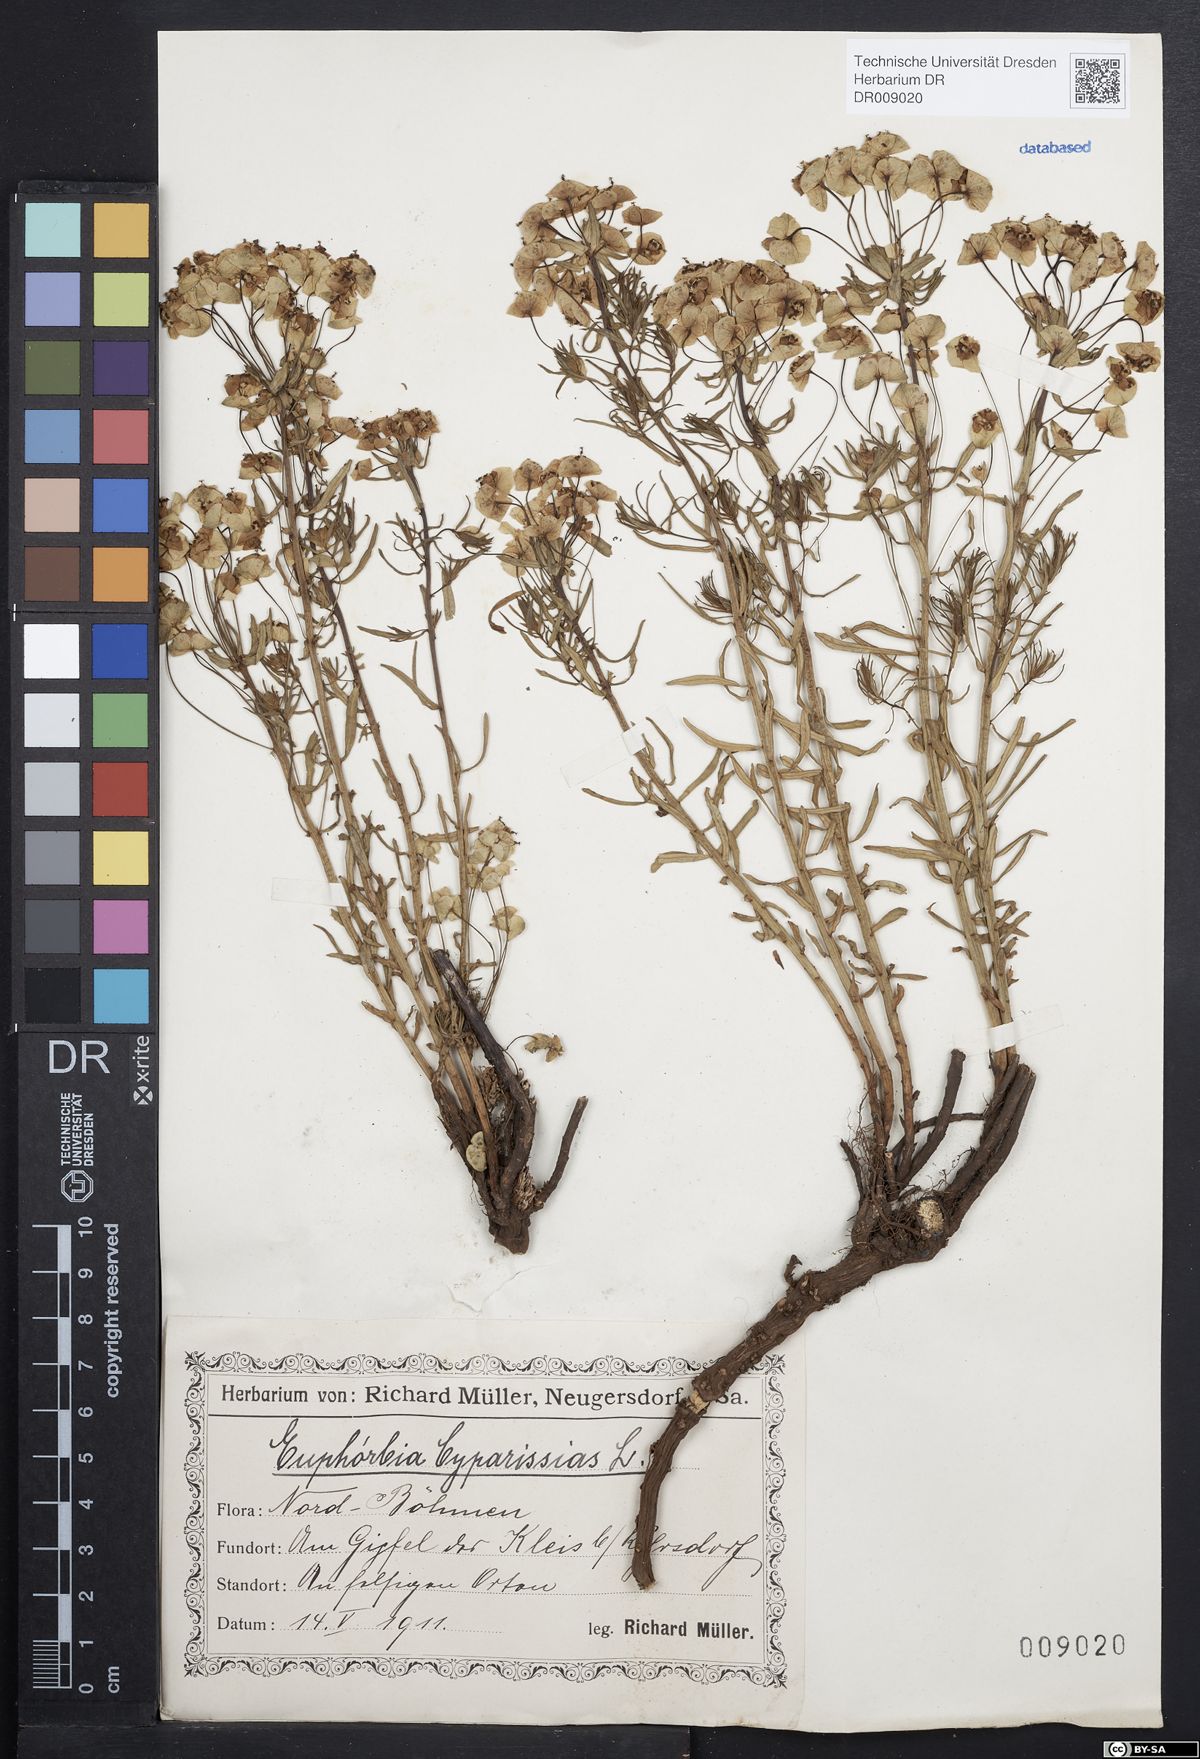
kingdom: Plantae
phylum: Tracheophyta
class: Magnoliopsida
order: Malpighiales
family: Euphorbiaceae
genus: Euphorbia
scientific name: Euphorbia cyparissias
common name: Cypress spurge
